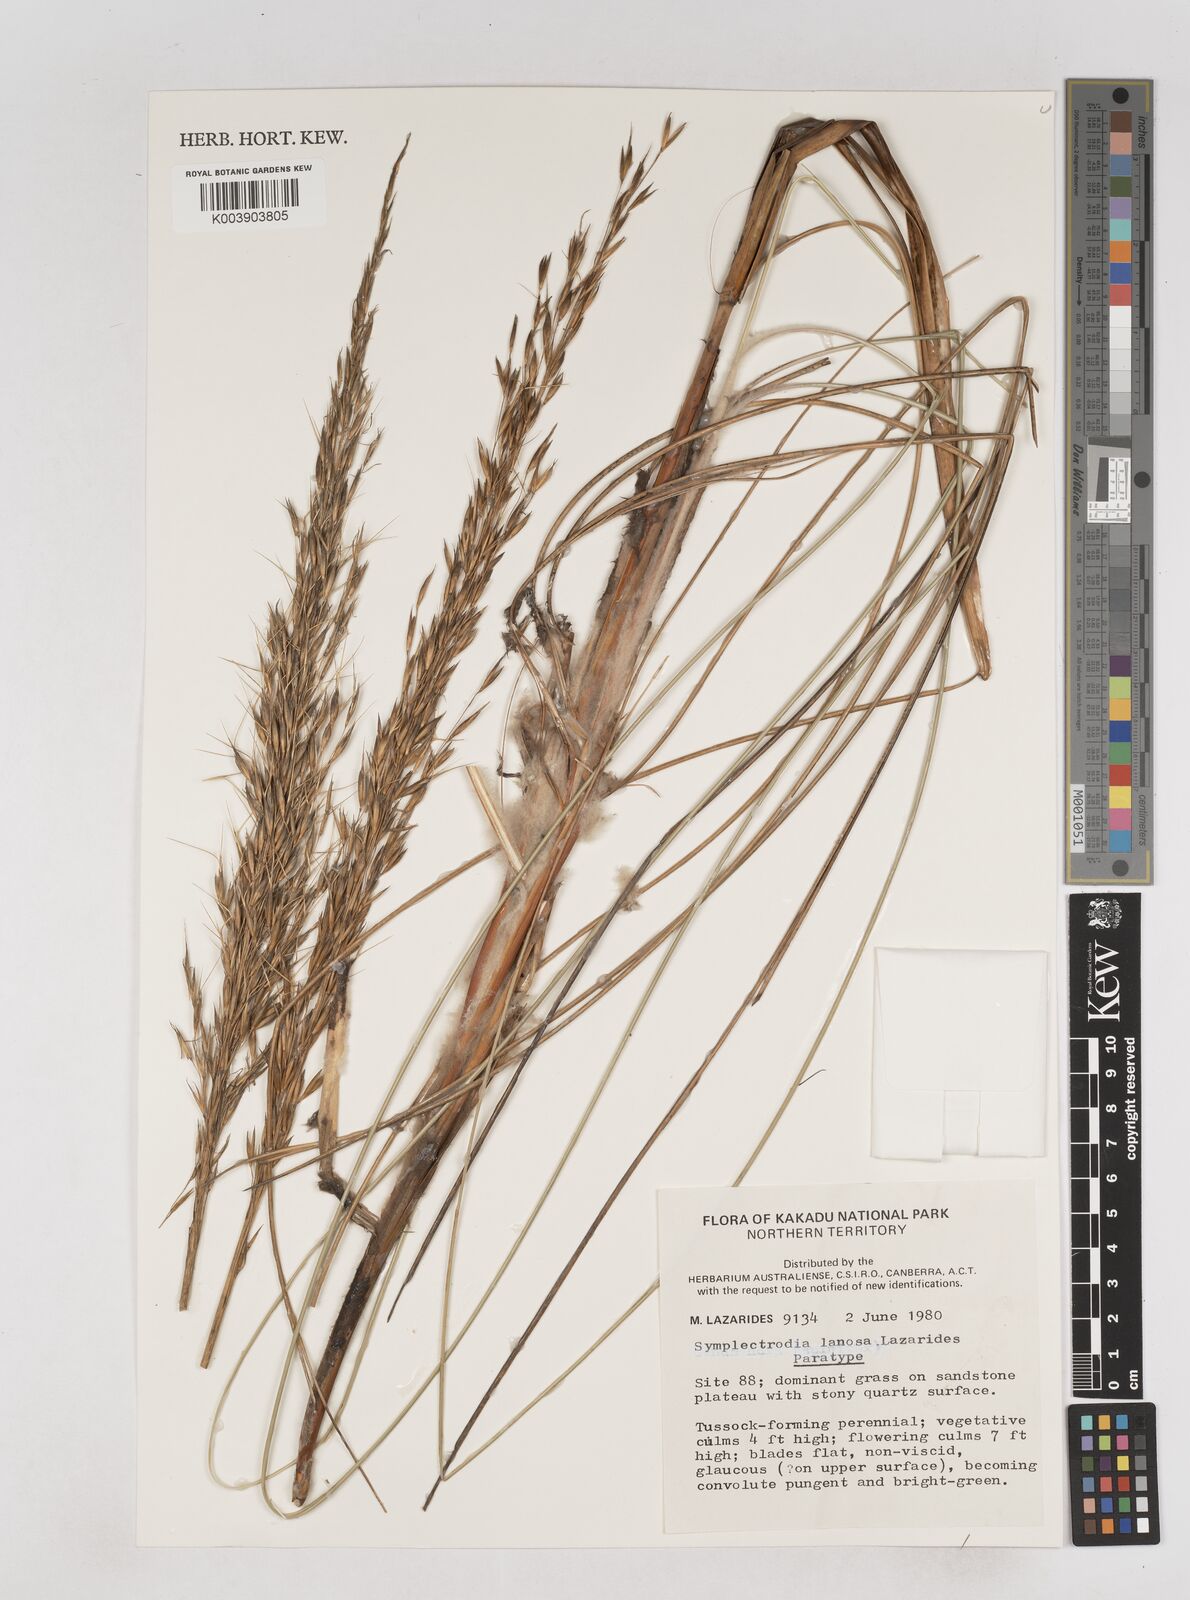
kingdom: Plantae
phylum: Tracheophyta
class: Liliopsida
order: Poales
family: Poaceae
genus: Triodia
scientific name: Triodia lanosa
